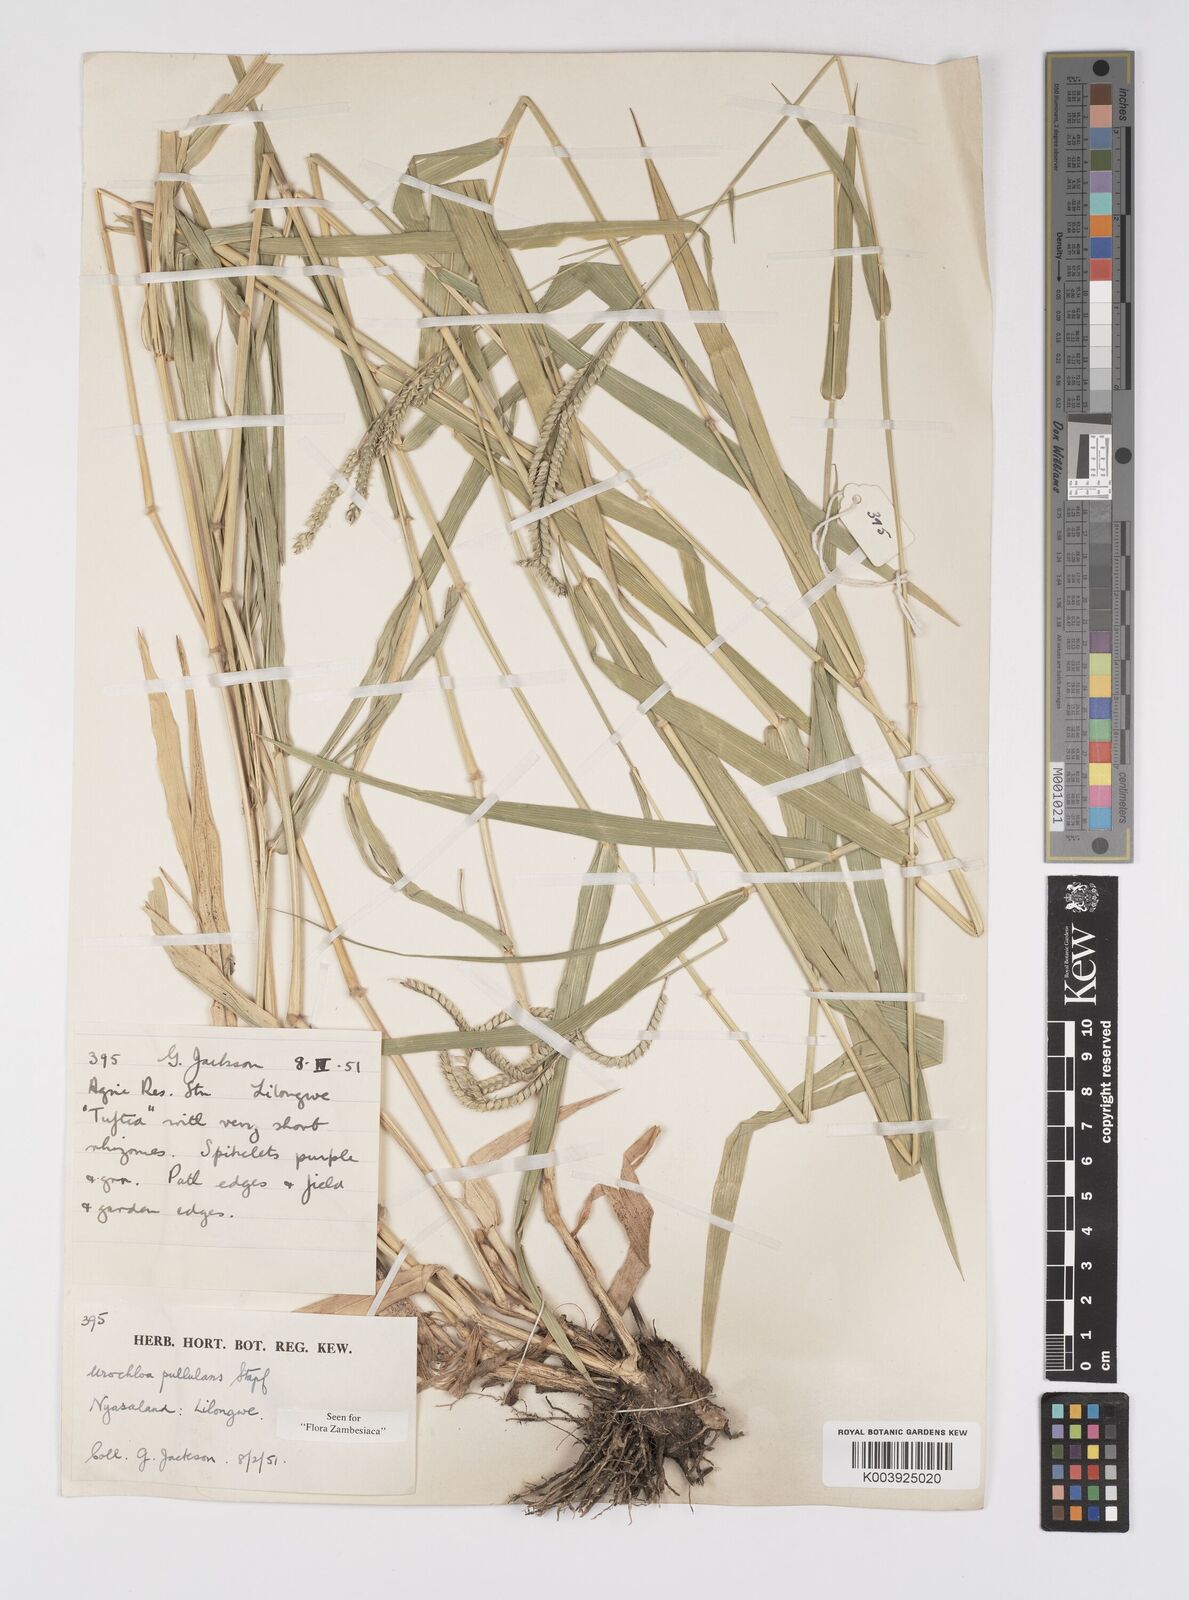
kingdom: Plantae
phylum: Tracheophyta
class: Liliopsida
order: Poales
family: Poaceae
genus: Urochloa
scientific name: Urochloa trichopus
